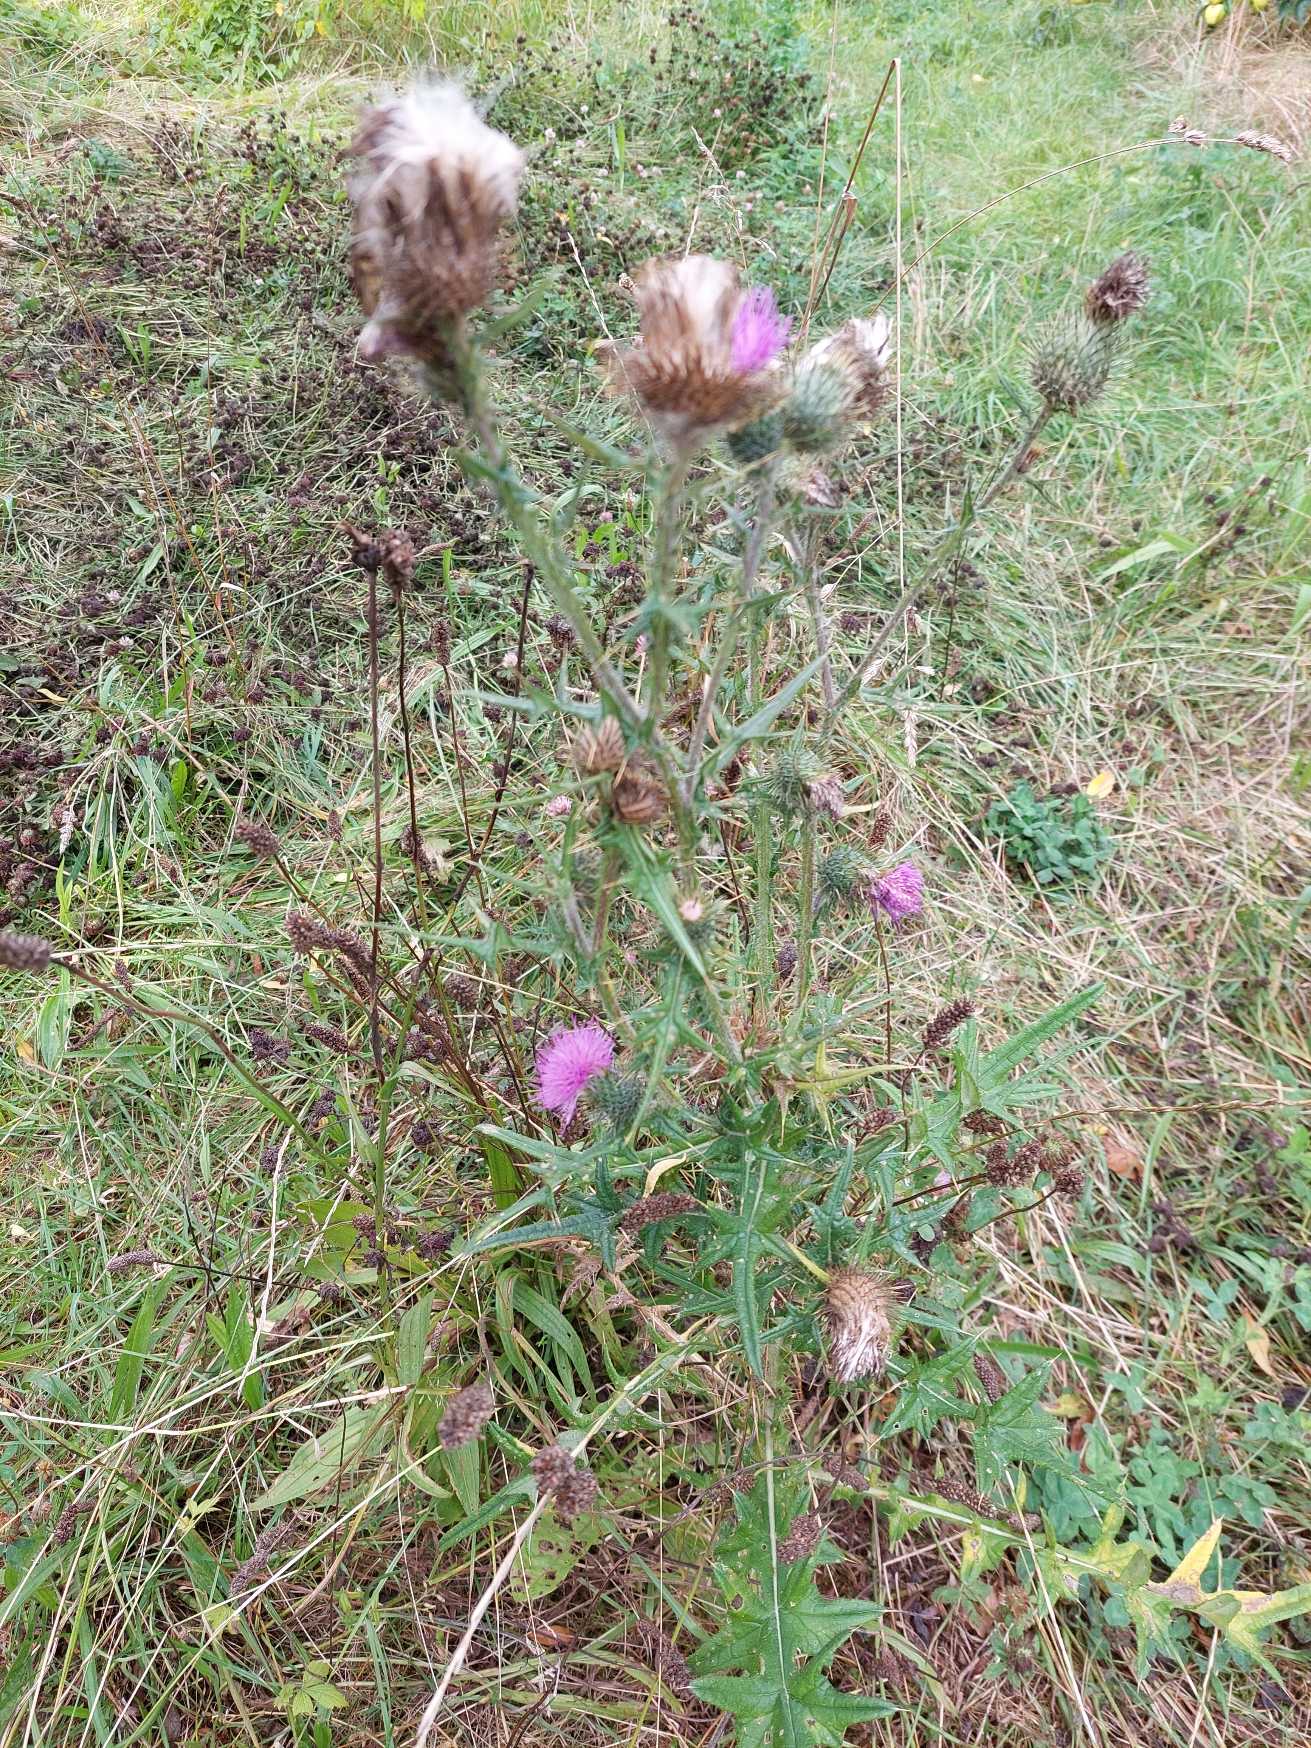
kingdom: Plantae
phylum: Tracheophyta
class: Magnoliopsida
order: Asterales
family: Asteraceae
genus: Cirsium
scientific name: Cirsium vulgare
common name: Horse-tidsel
